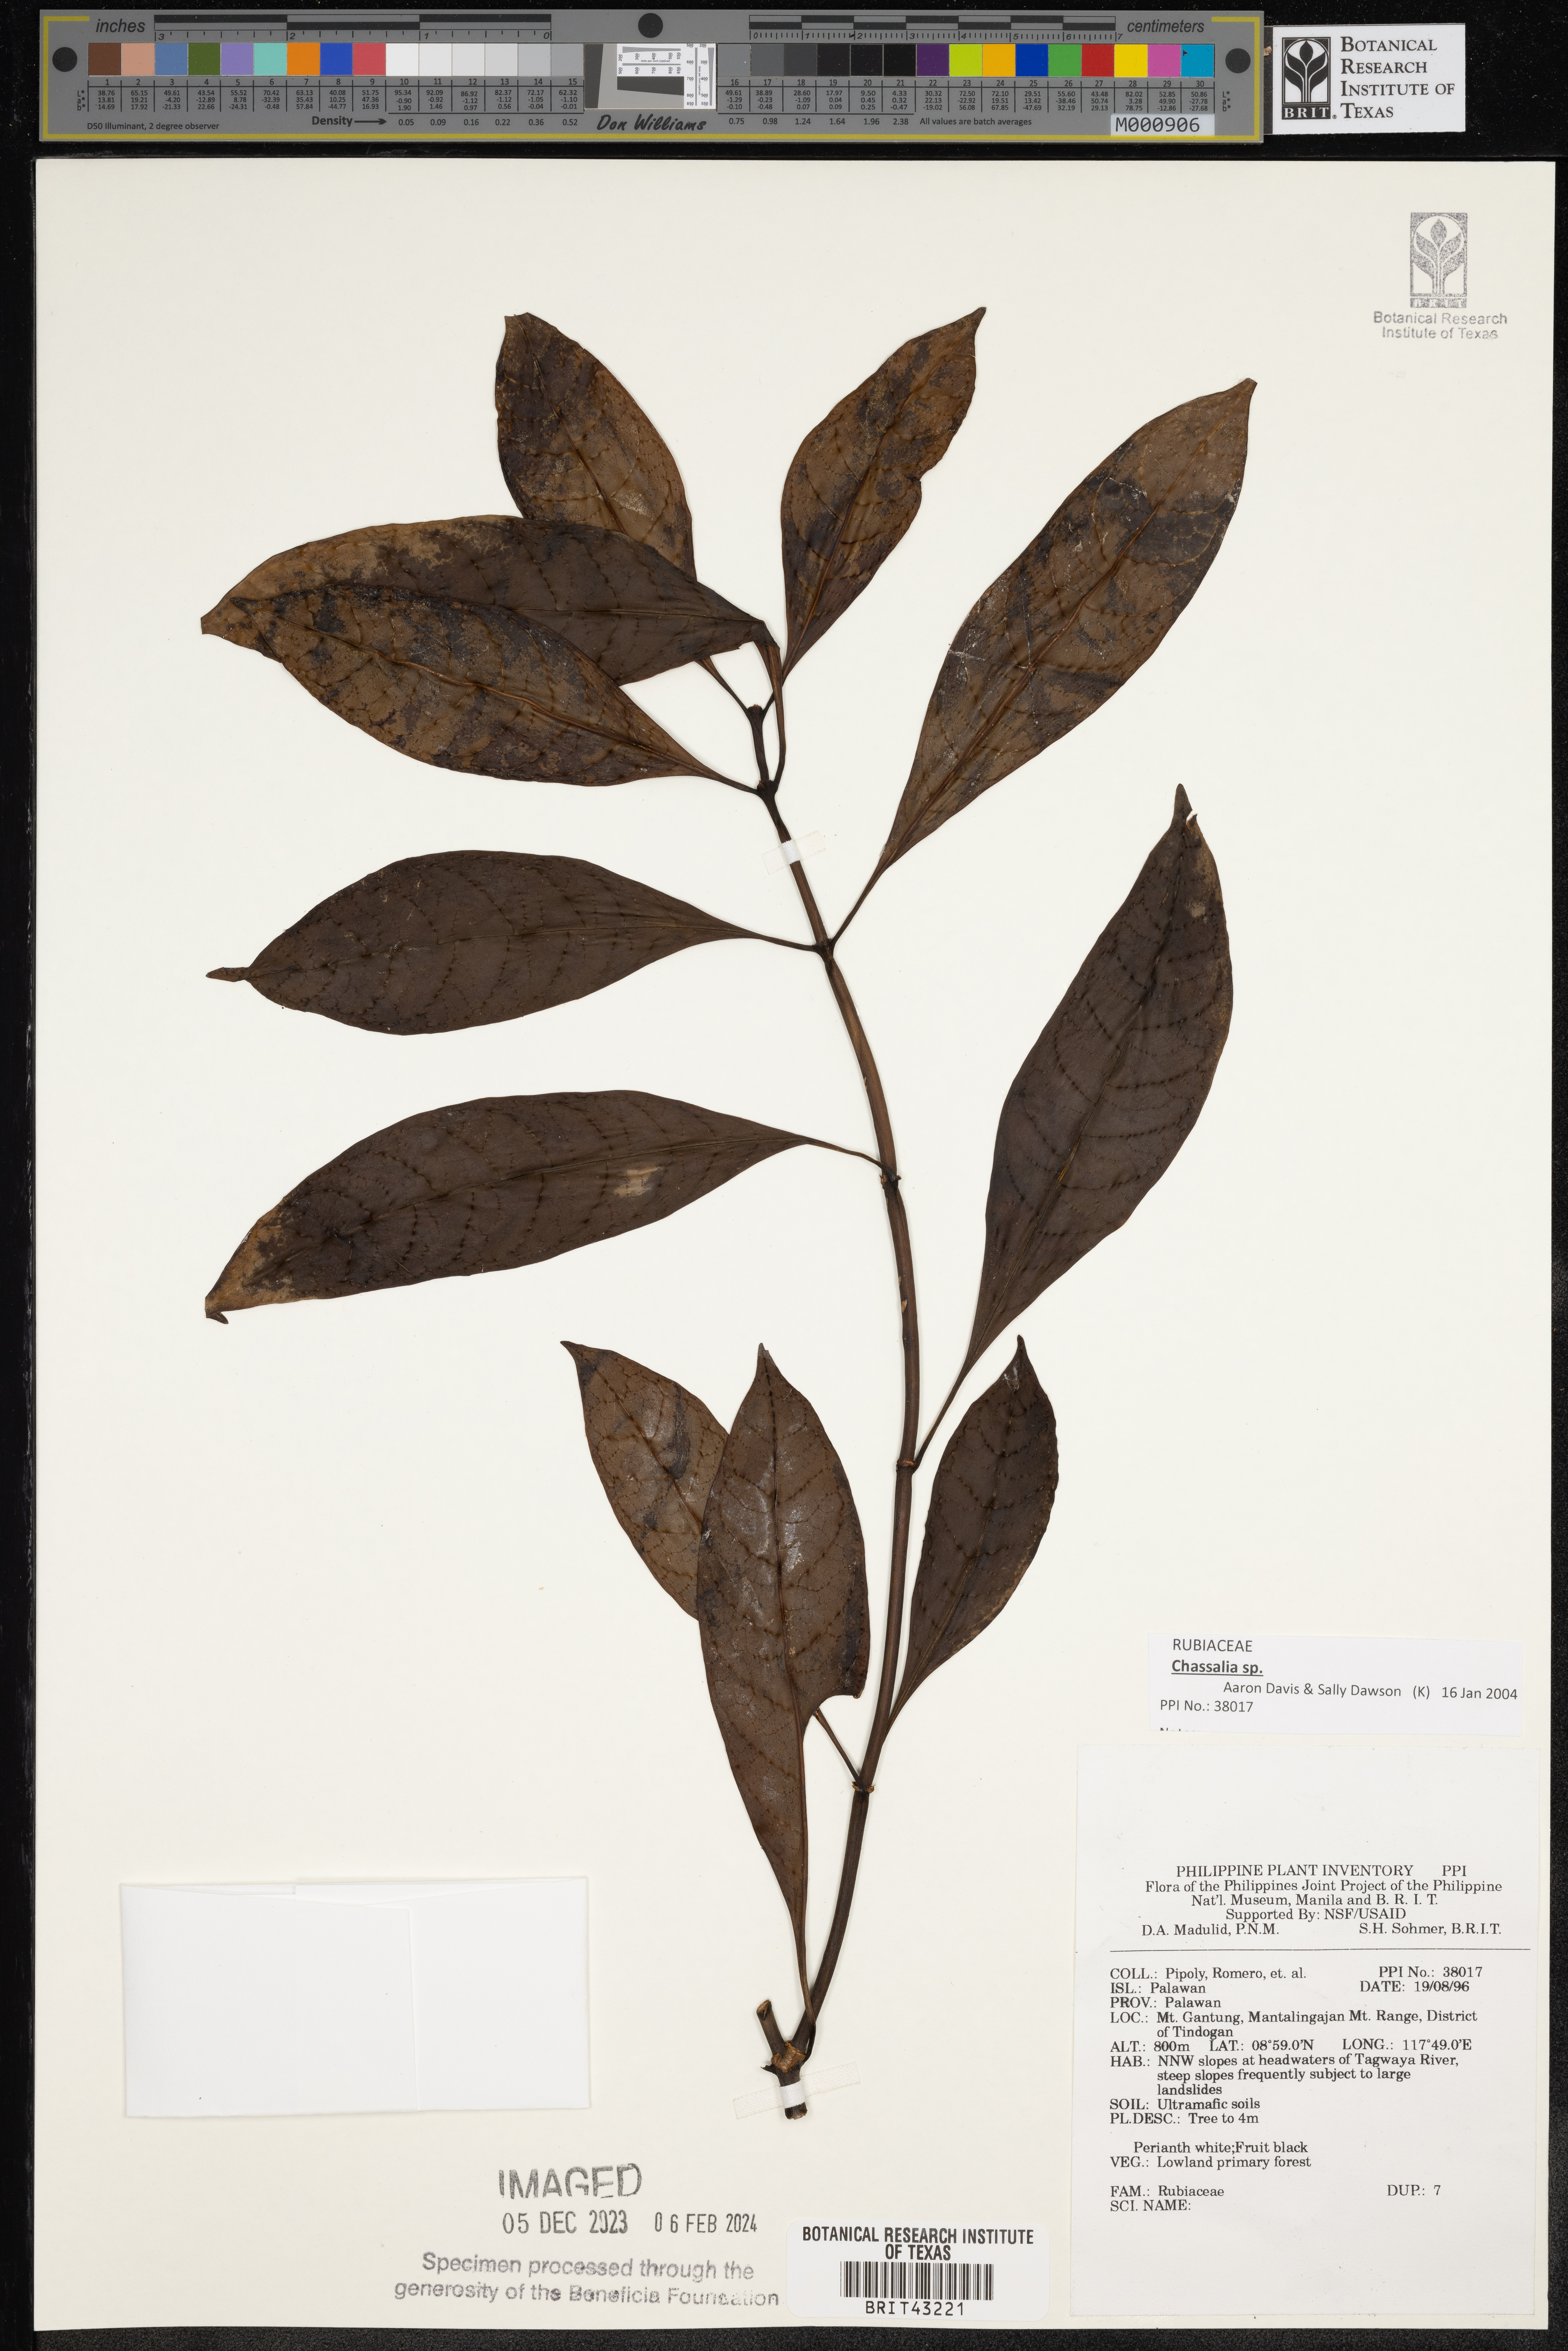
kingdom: Plantae
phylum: Tracheophyta
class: Magnoliopsida
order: Gentianales
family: Rubiaceae
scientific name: Rubiaceae
